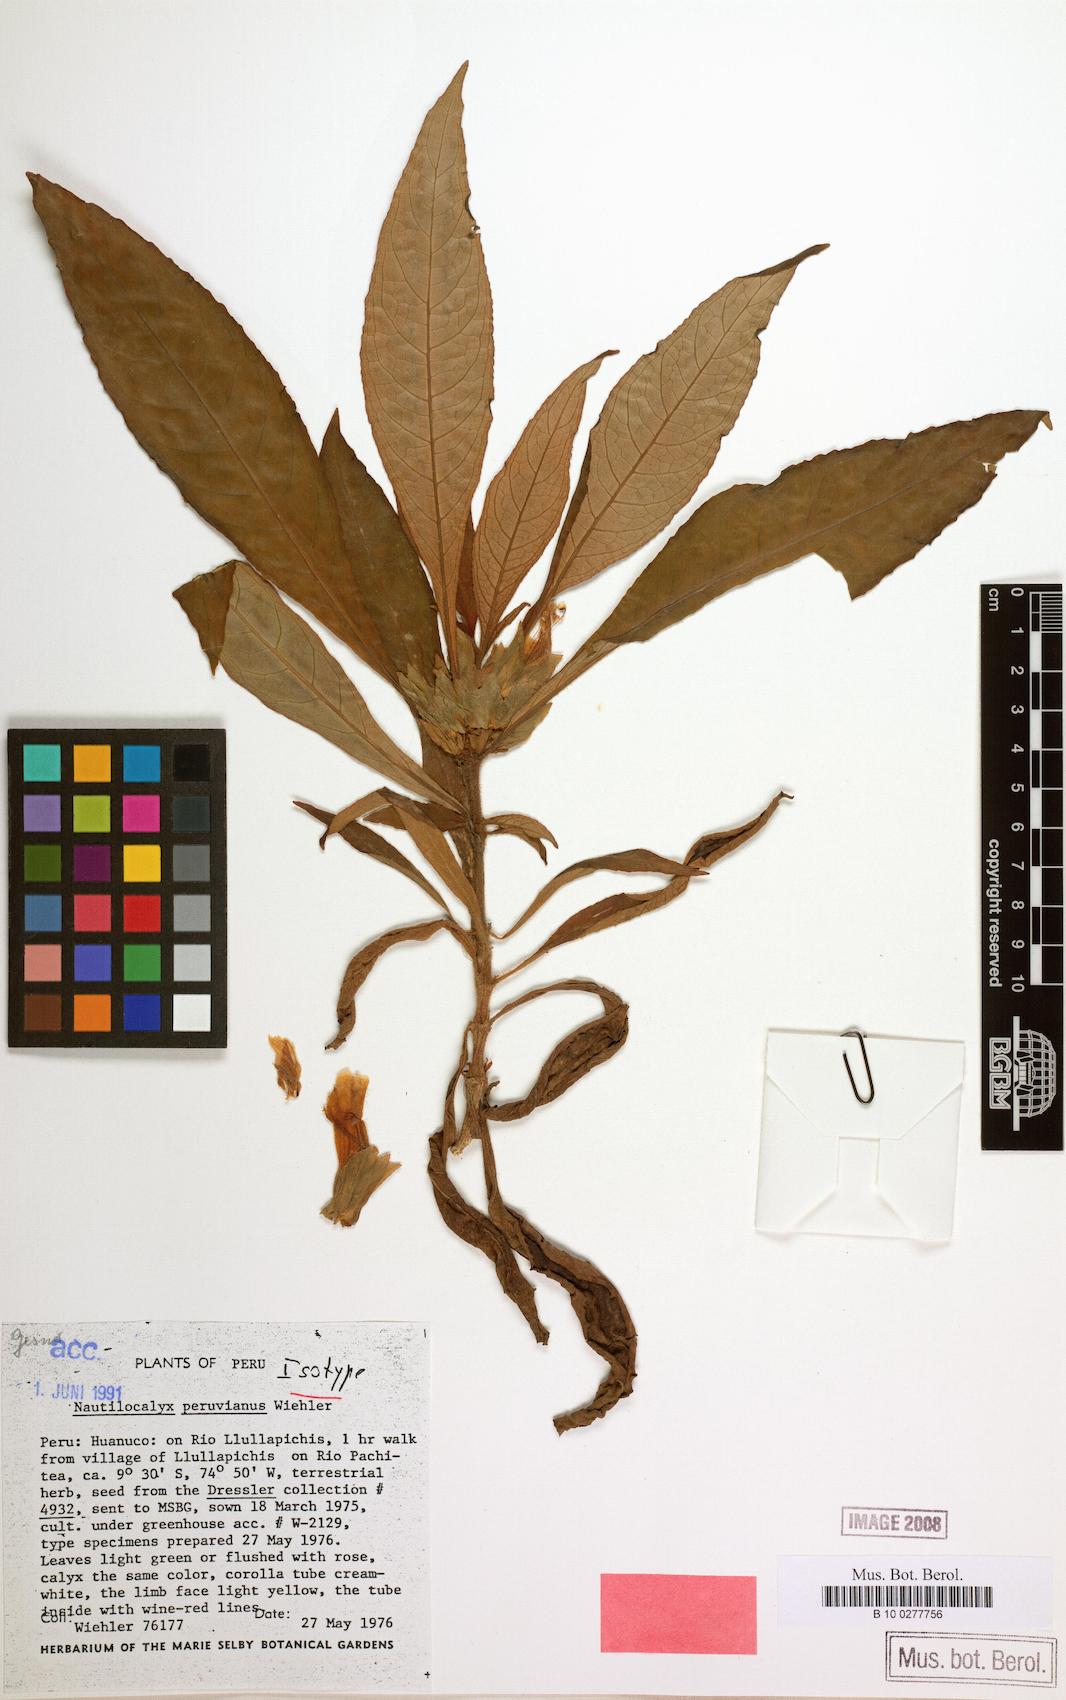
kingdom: Plantae
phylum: Tracheophyta
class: Magnoliopsida
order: Lamiales
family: Gesneriaceae
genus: Nautilocalyx
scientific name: Nautilocalyx peruvianus
